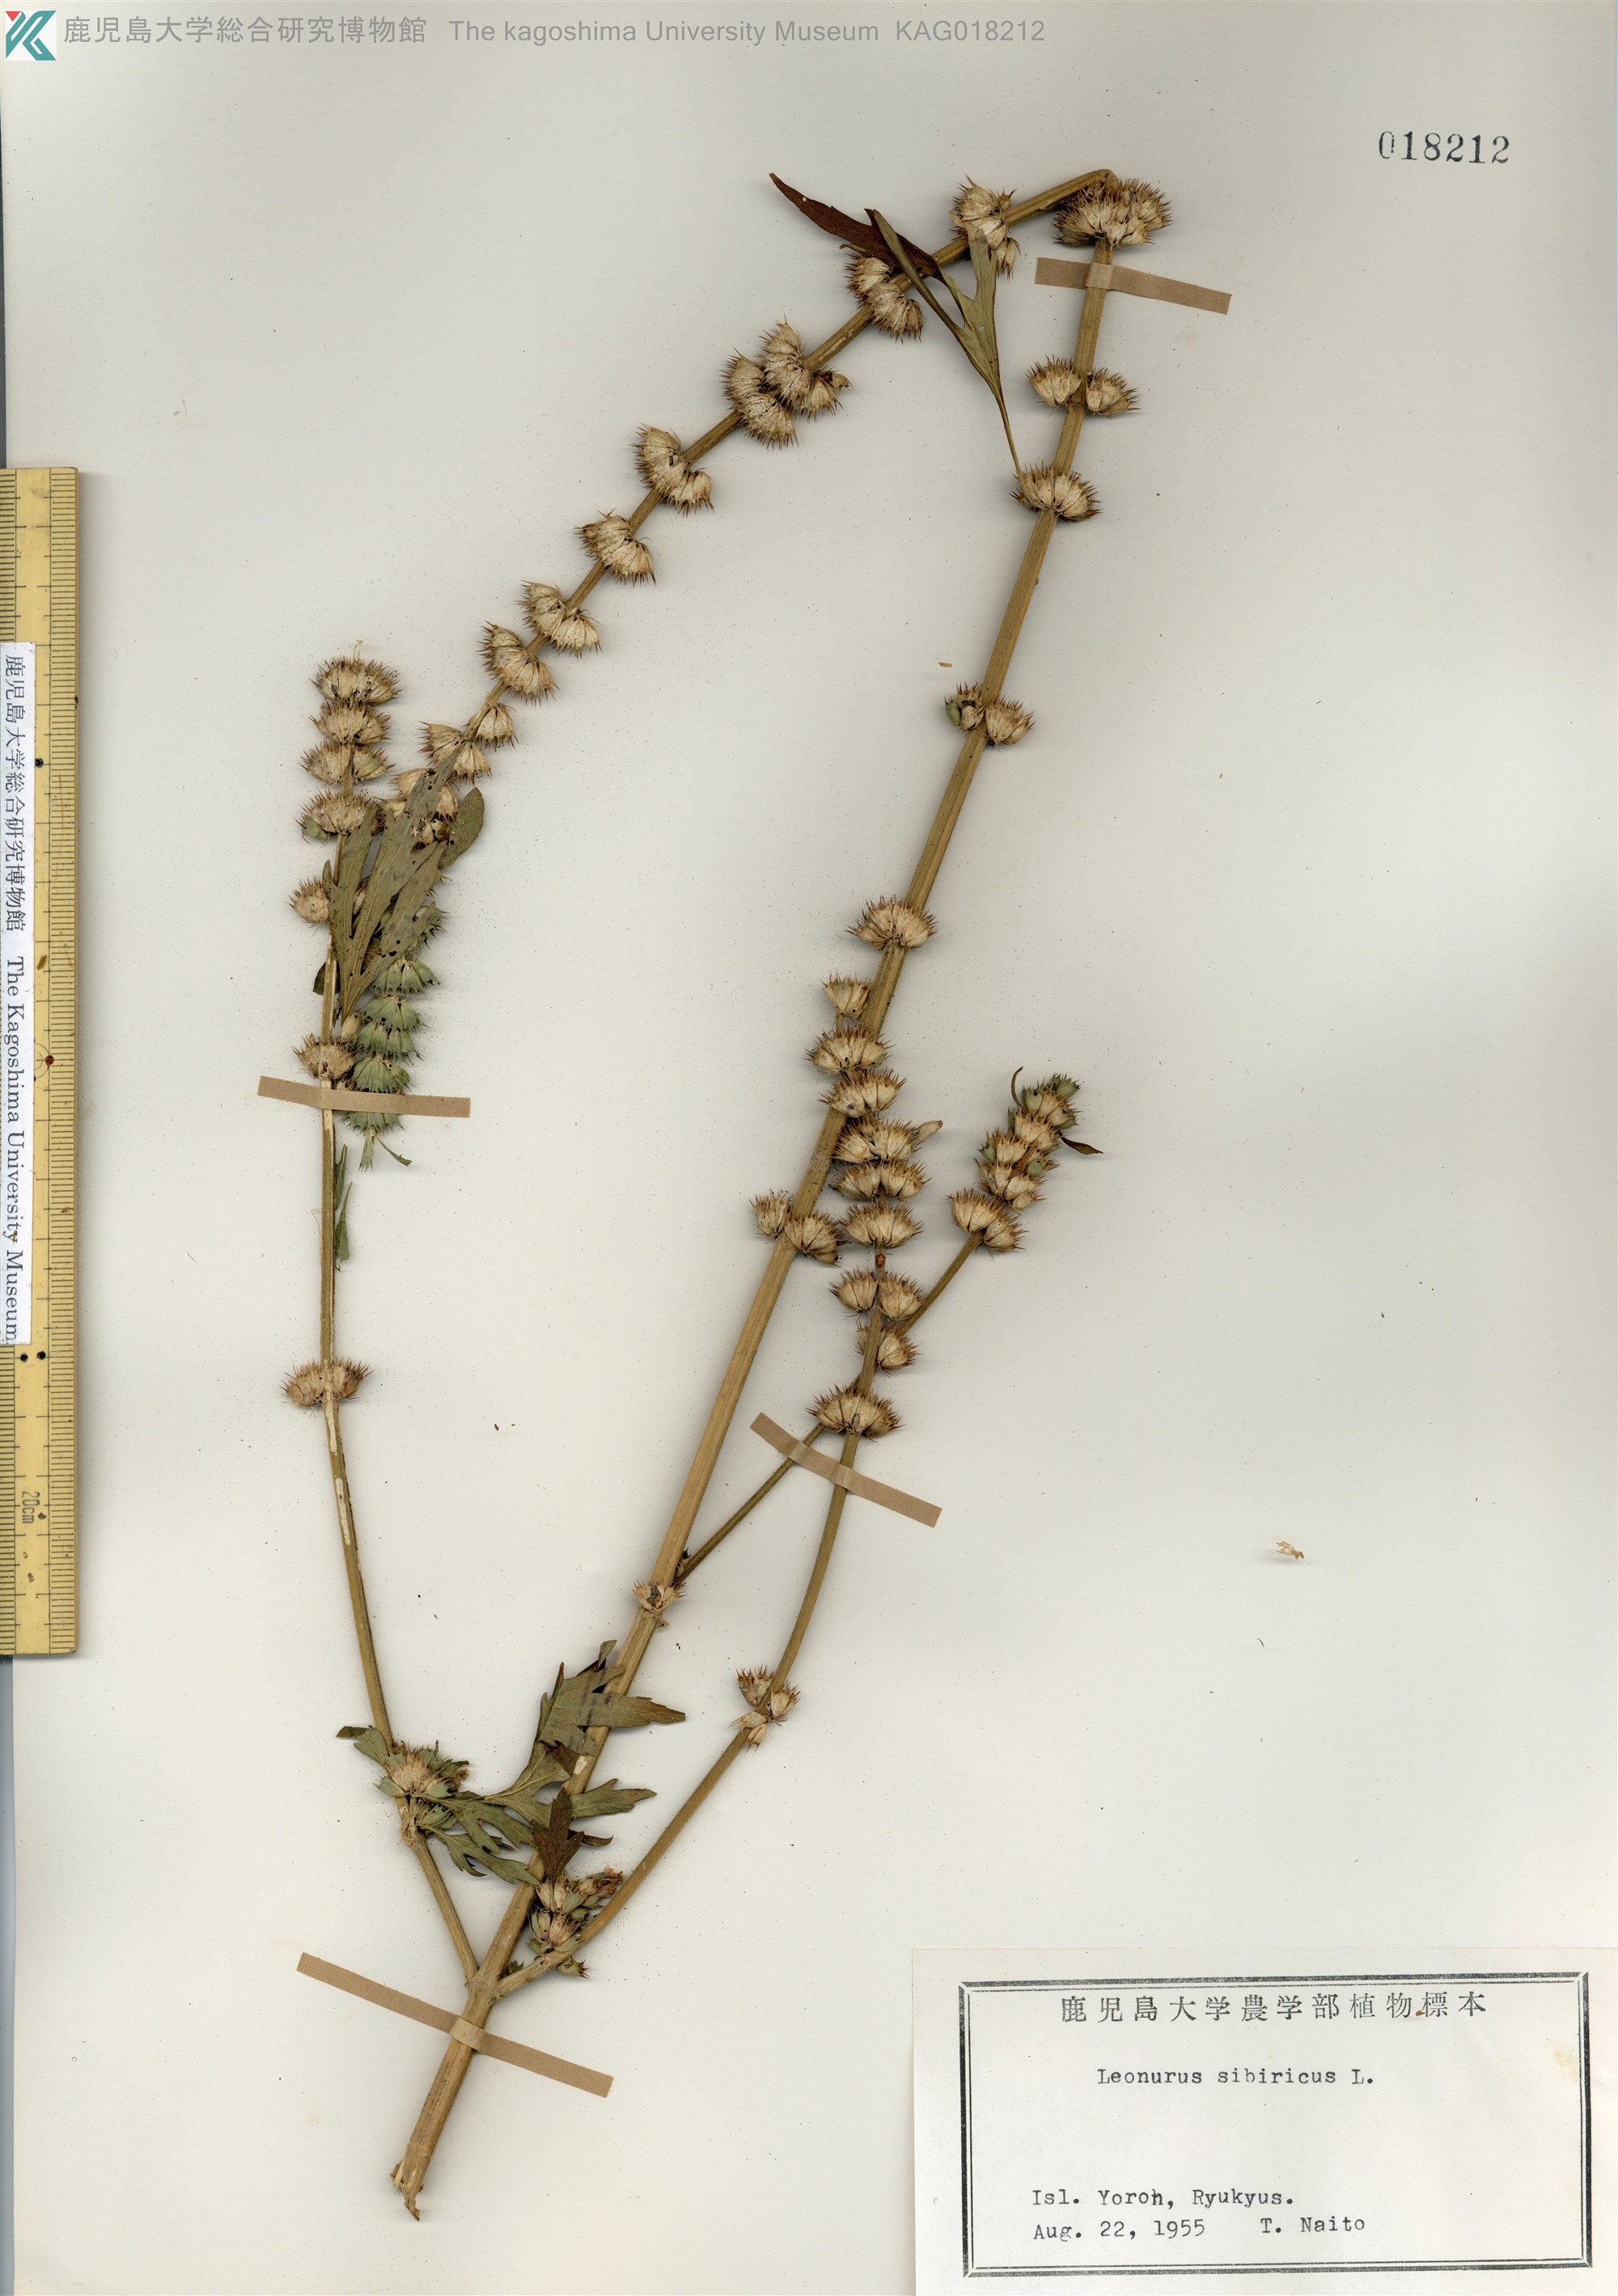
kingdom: Plantae
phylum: Tracheophyta
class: Magnoliopsida
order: Lamiales
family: Lamiaceae
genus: Leonurus
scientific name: Leonurus japonicus
